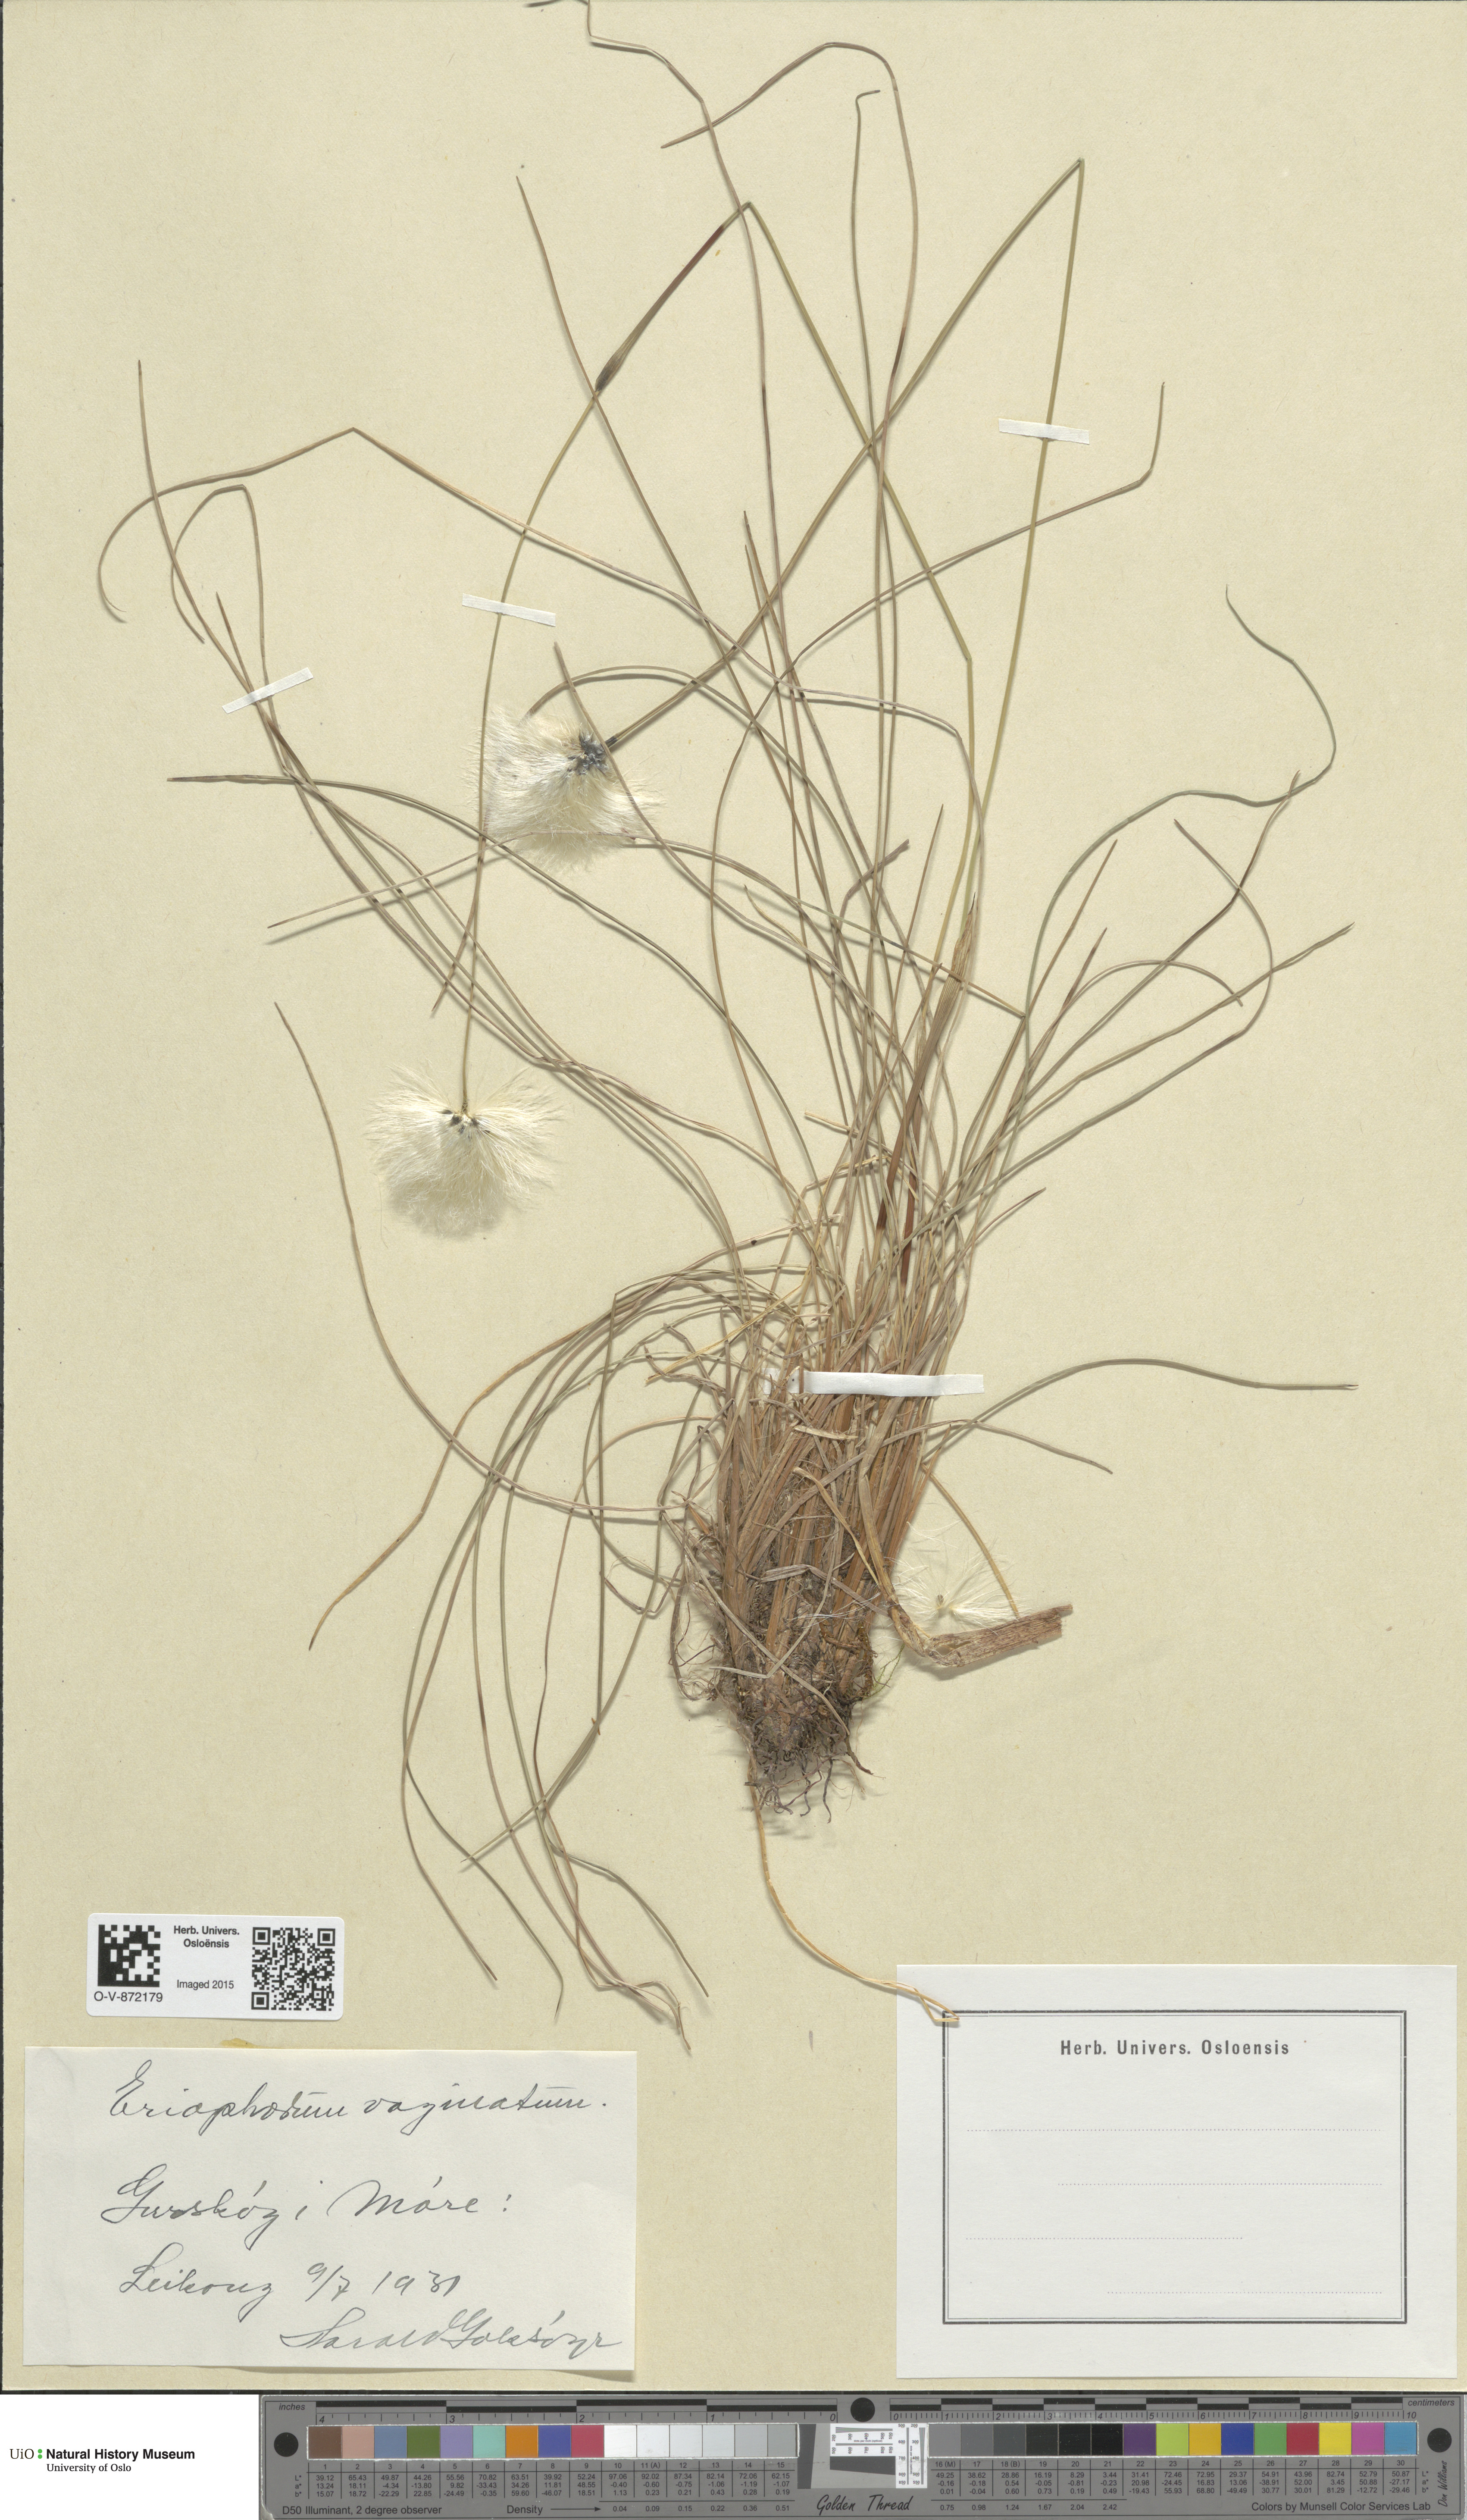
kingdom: Plantae
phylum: Tracheophyta
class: Liliopsida
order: Poales
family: Cyperaceae
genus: Eriophorum
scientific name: Eriophorum vaginatum
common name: Hare's-tail cottongrass
